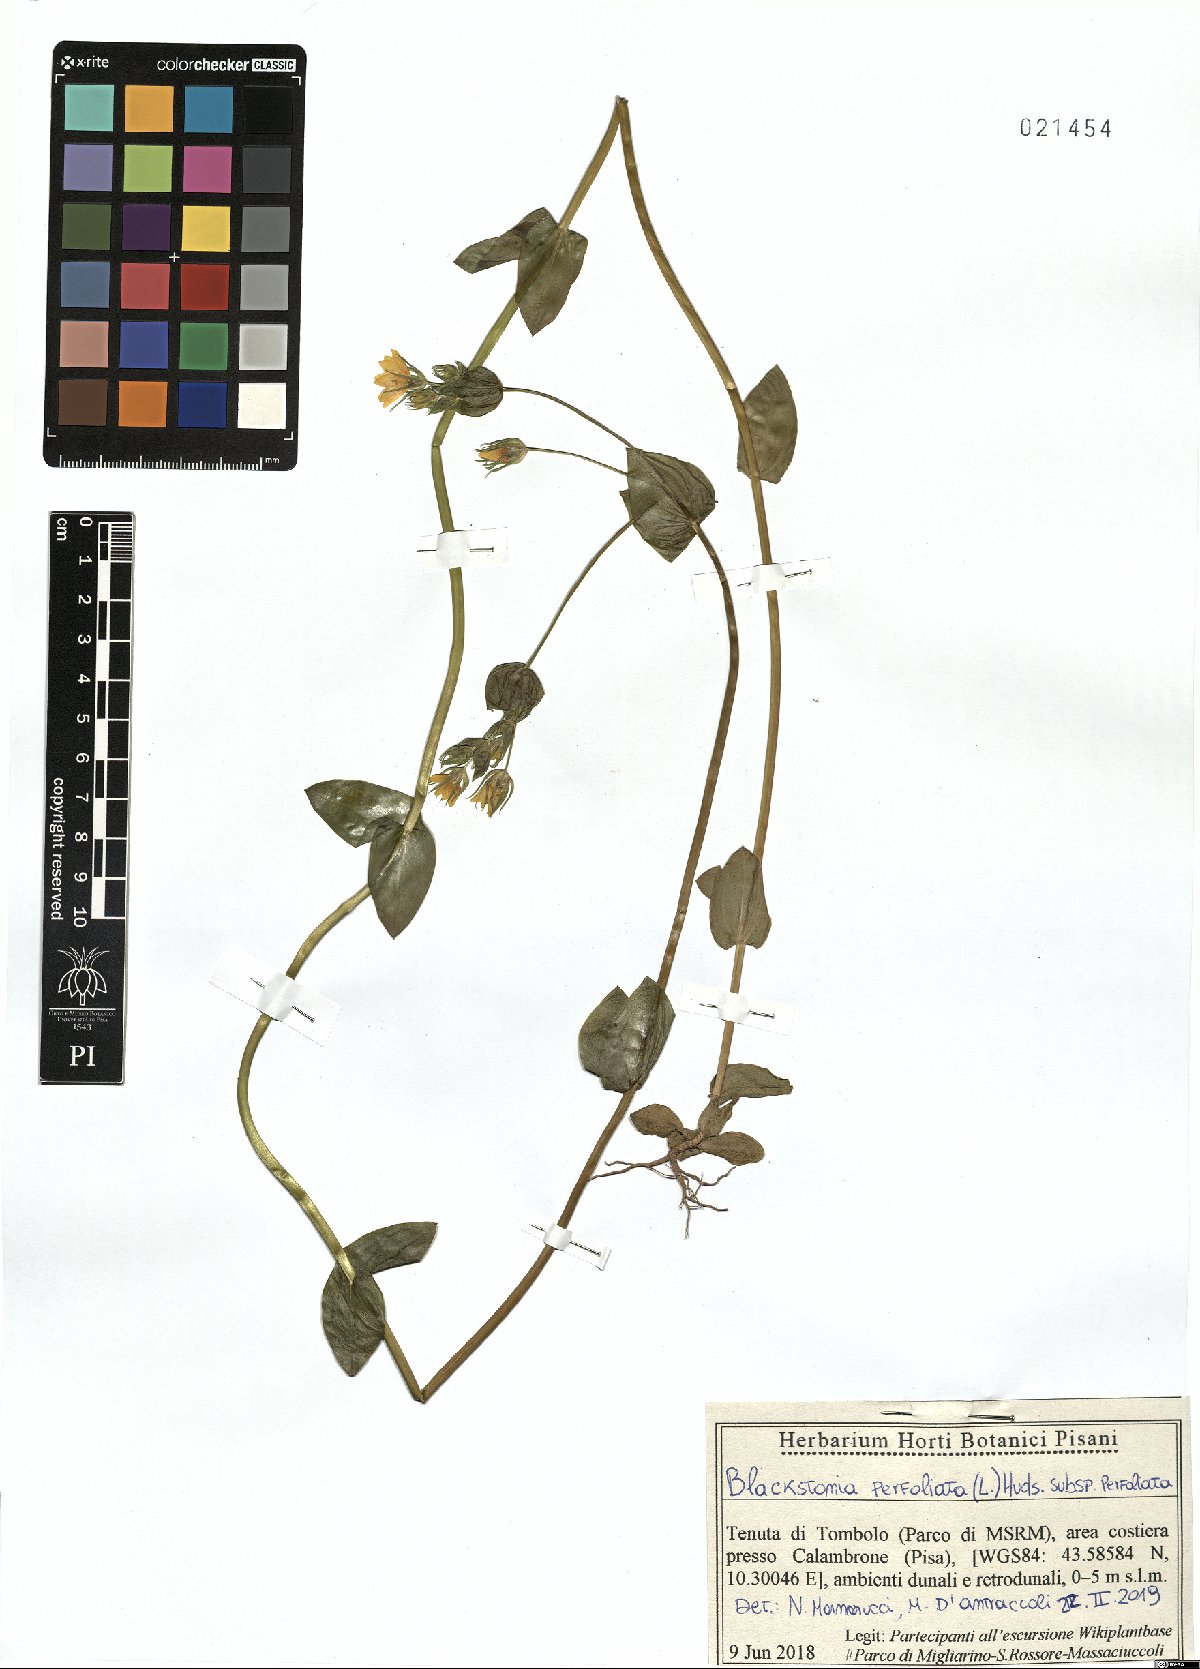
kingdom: Plantae
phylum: Tracheophyta
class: Magnoliopsida
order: Gentianales
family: Gentianaceae
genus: Blackstonia
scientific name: Blackstonia perfoliata
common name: Yellow-wort
